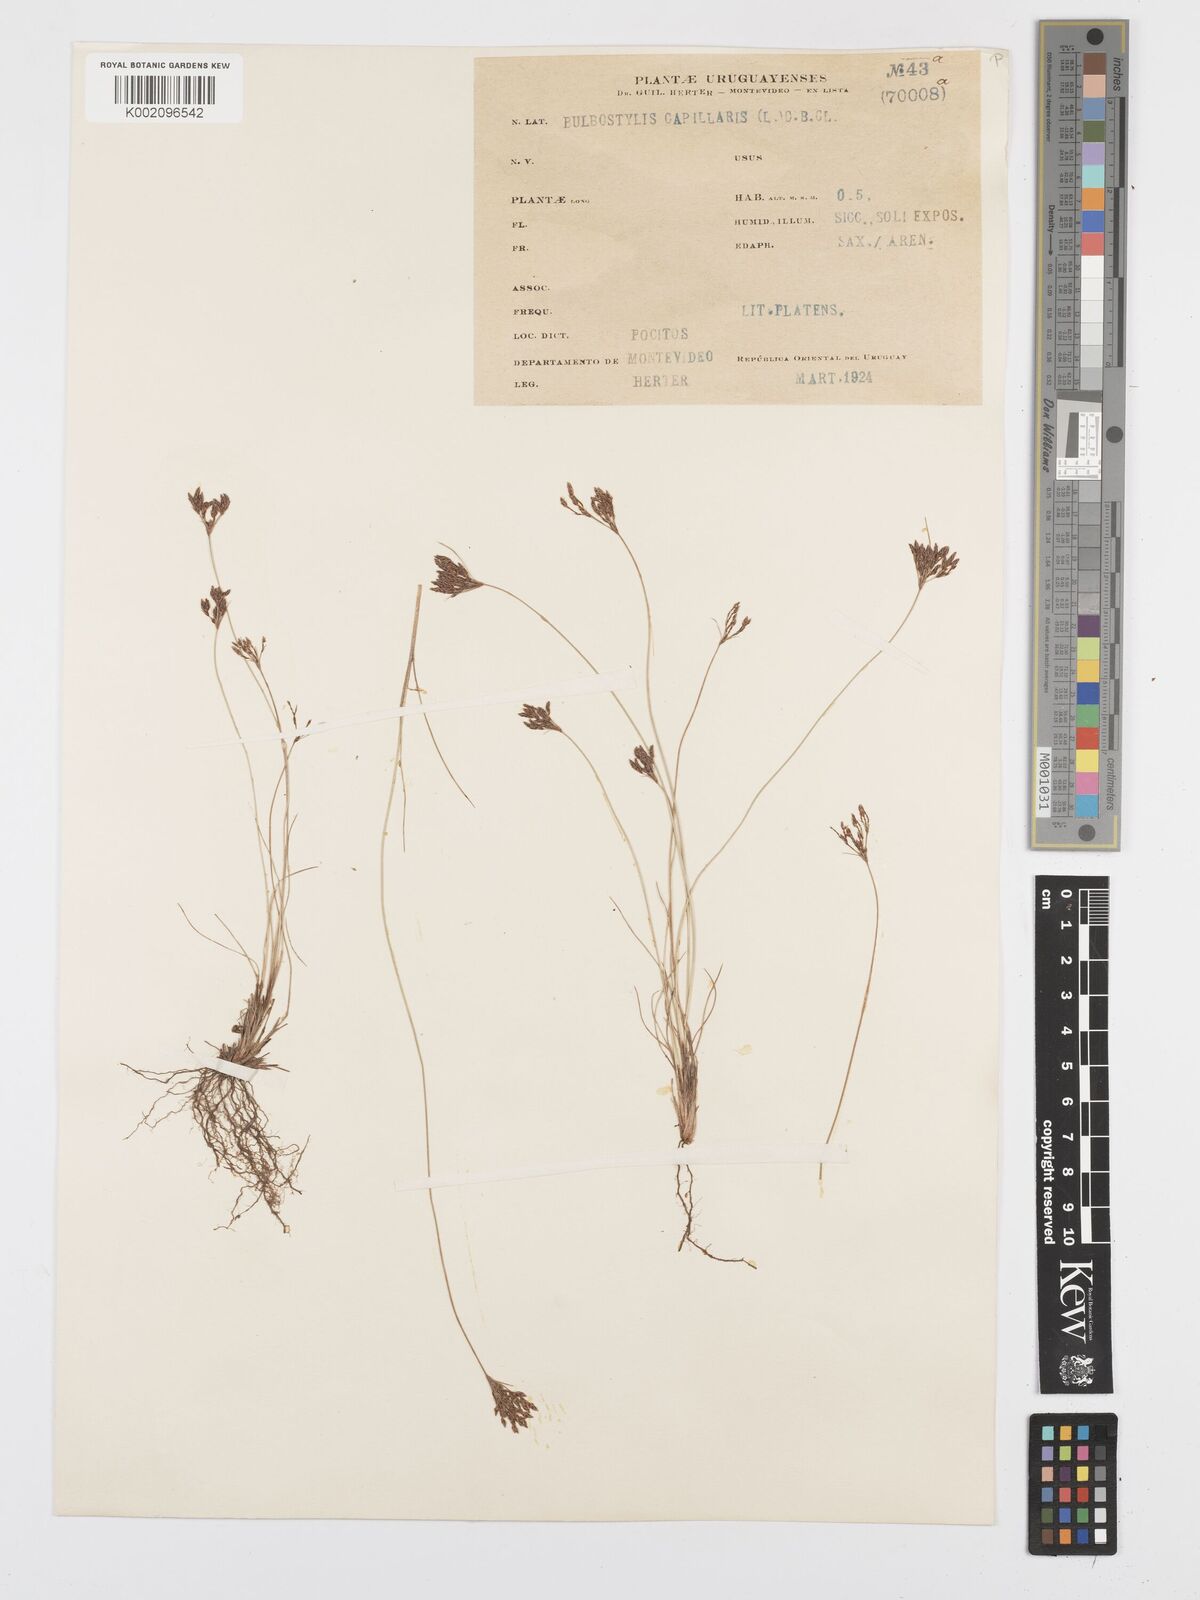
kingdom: Plantae
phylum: Tracheophyta
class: Liliopsida
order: Poales
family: Cyperaceae
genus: Bulbostylis
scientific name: Bulbostylis capillaris
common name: Densetuft hairsedge
